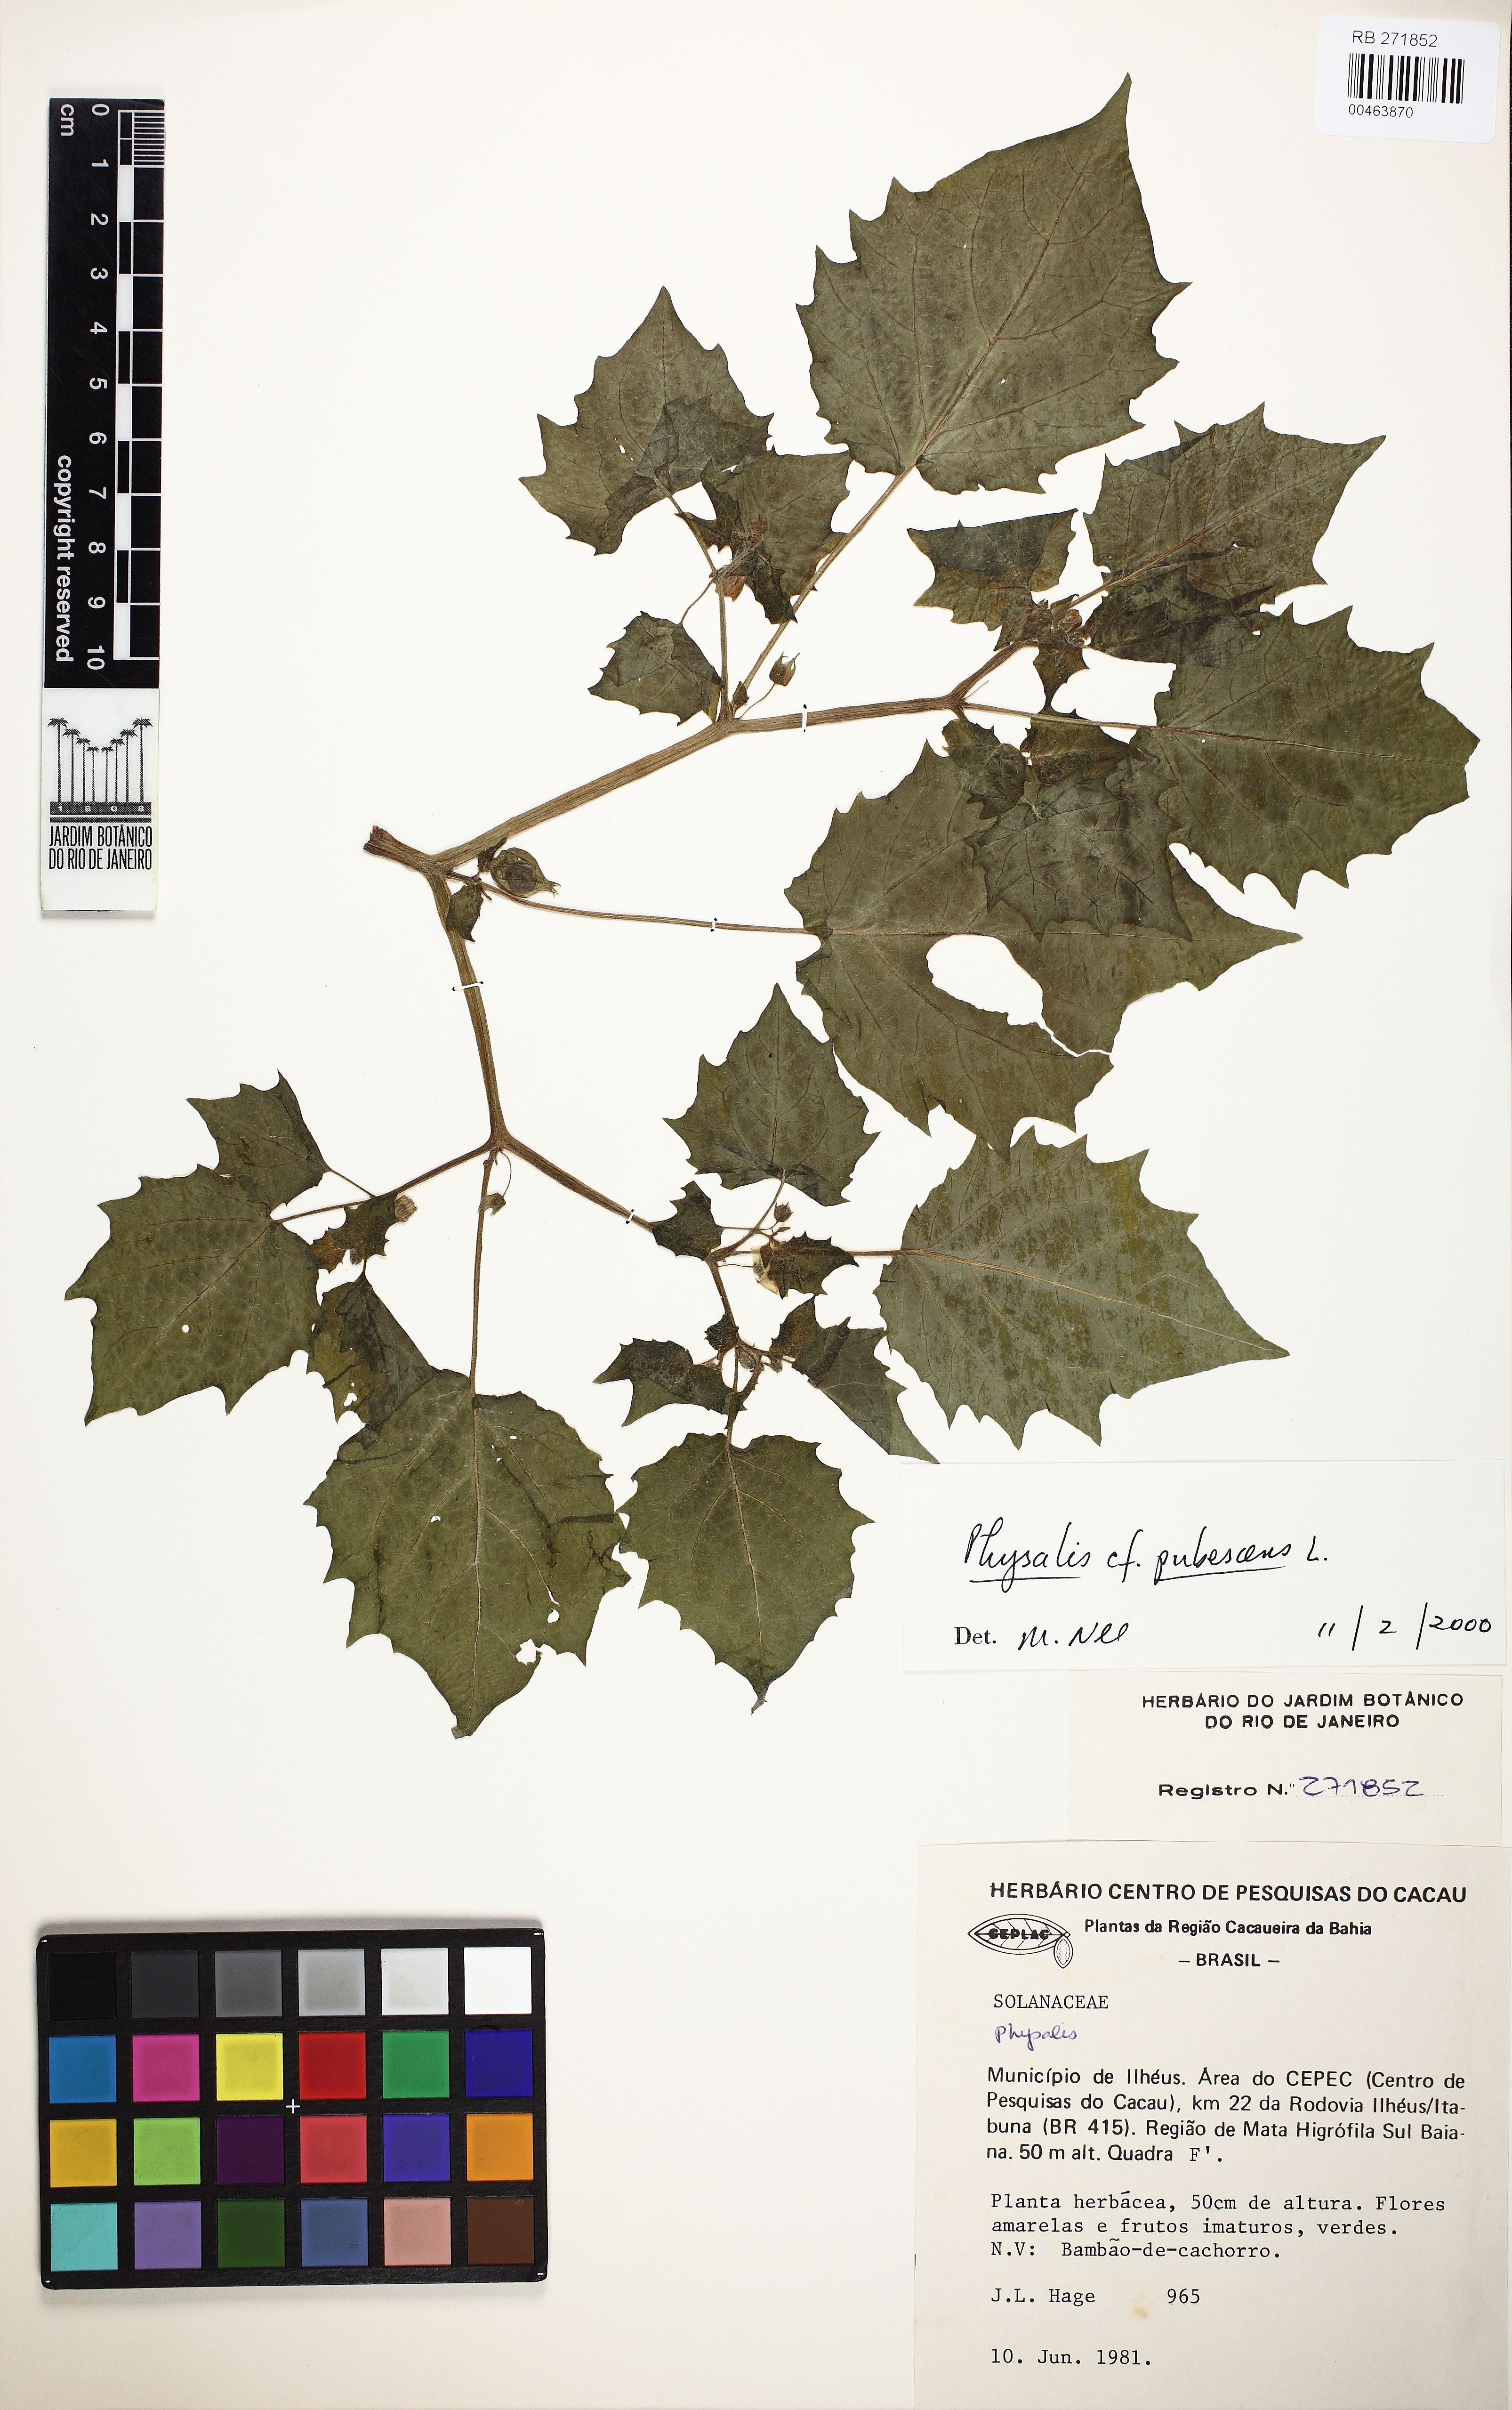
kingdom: Plantae
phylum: Tracheophyta
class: Magnoliopsida
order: Solanales
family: Solanaceae
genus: Physalis
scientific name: Physalis pubescens
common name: Downy ground-cherry
